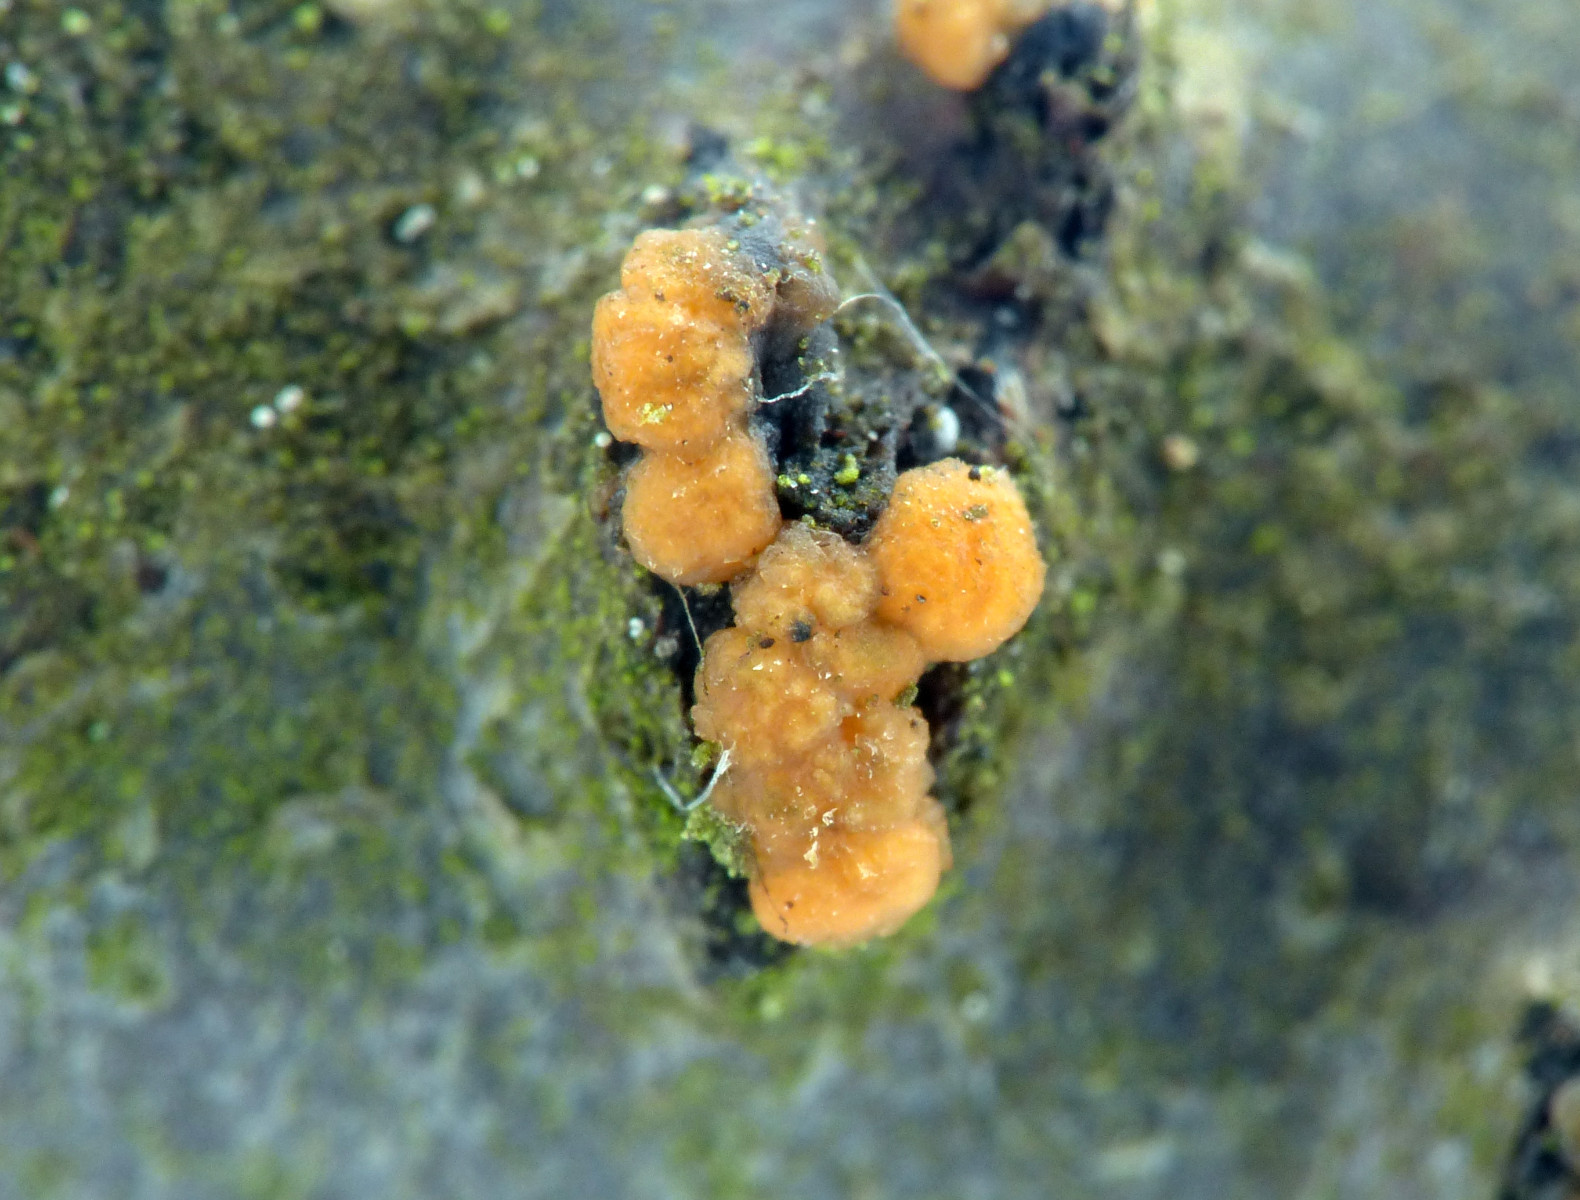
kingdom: Fungi
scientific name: Fungi
